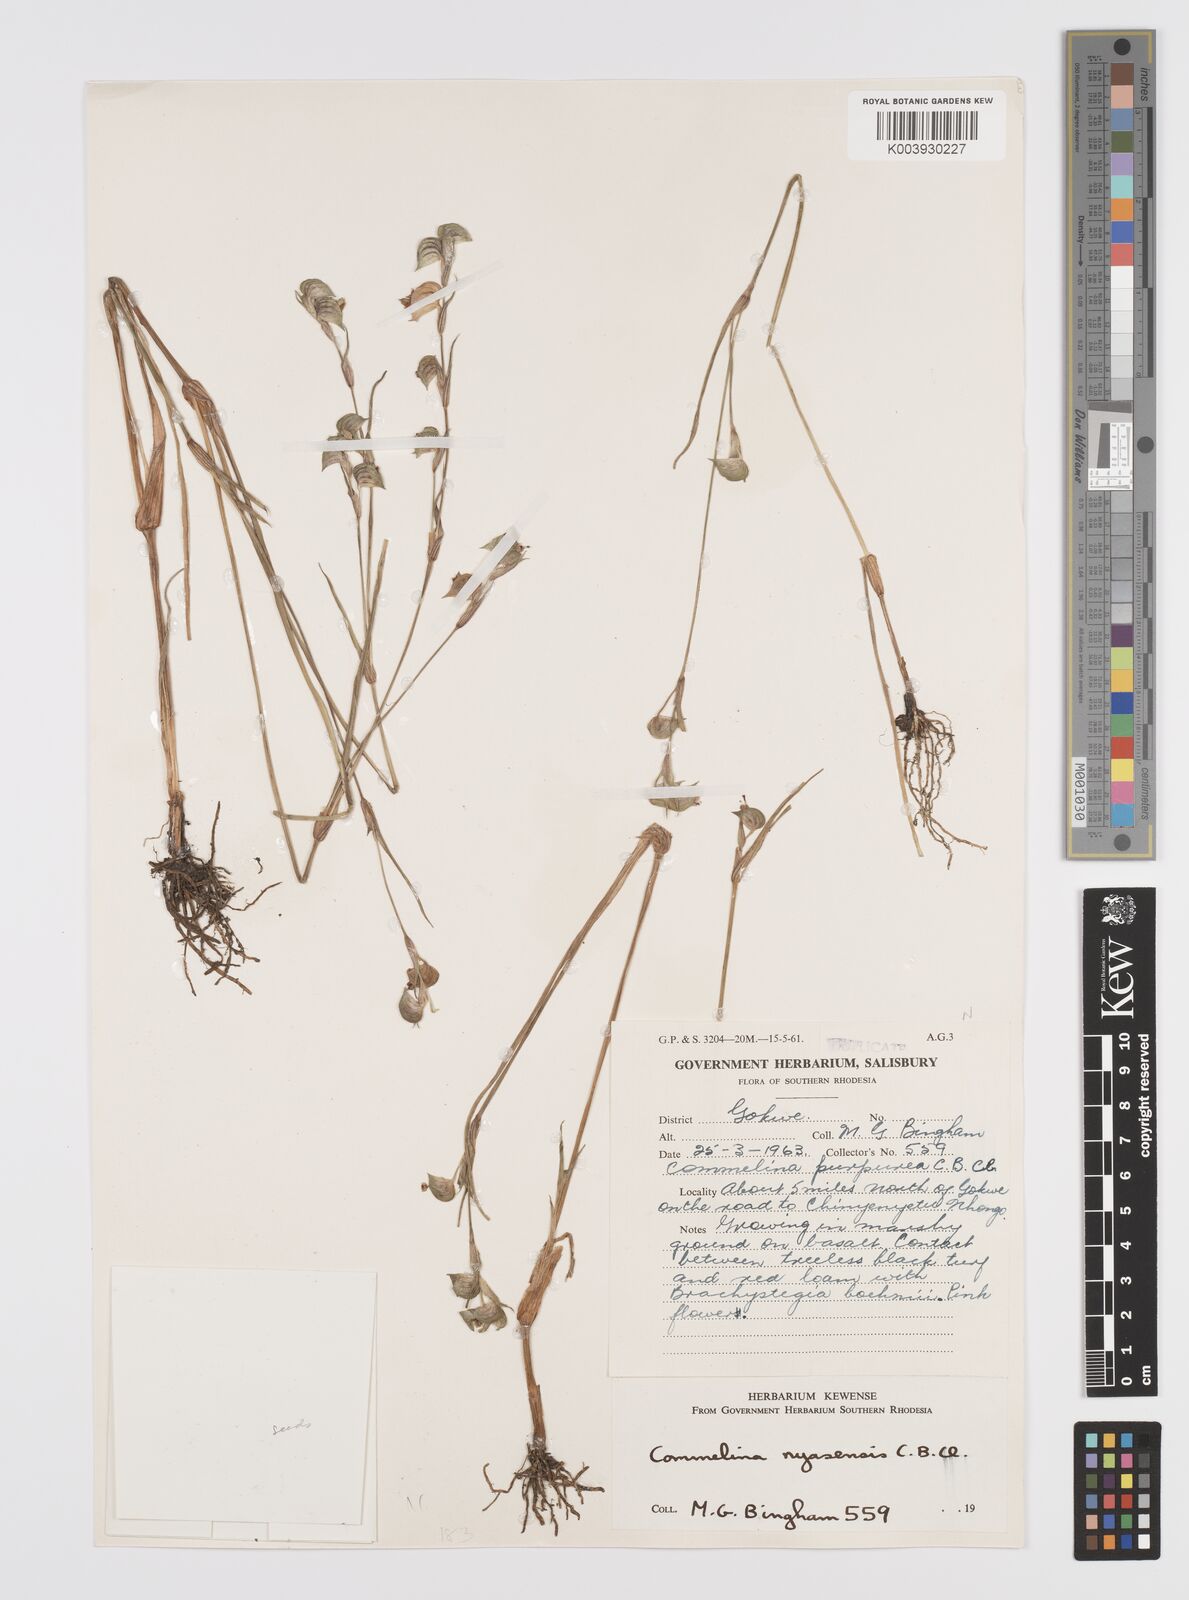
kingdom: Plantae
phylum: Tracheophyta
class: Liliopsida
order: Commelinales
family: Commelinaceae
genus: Commelina
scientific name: Commelina nyasensis
